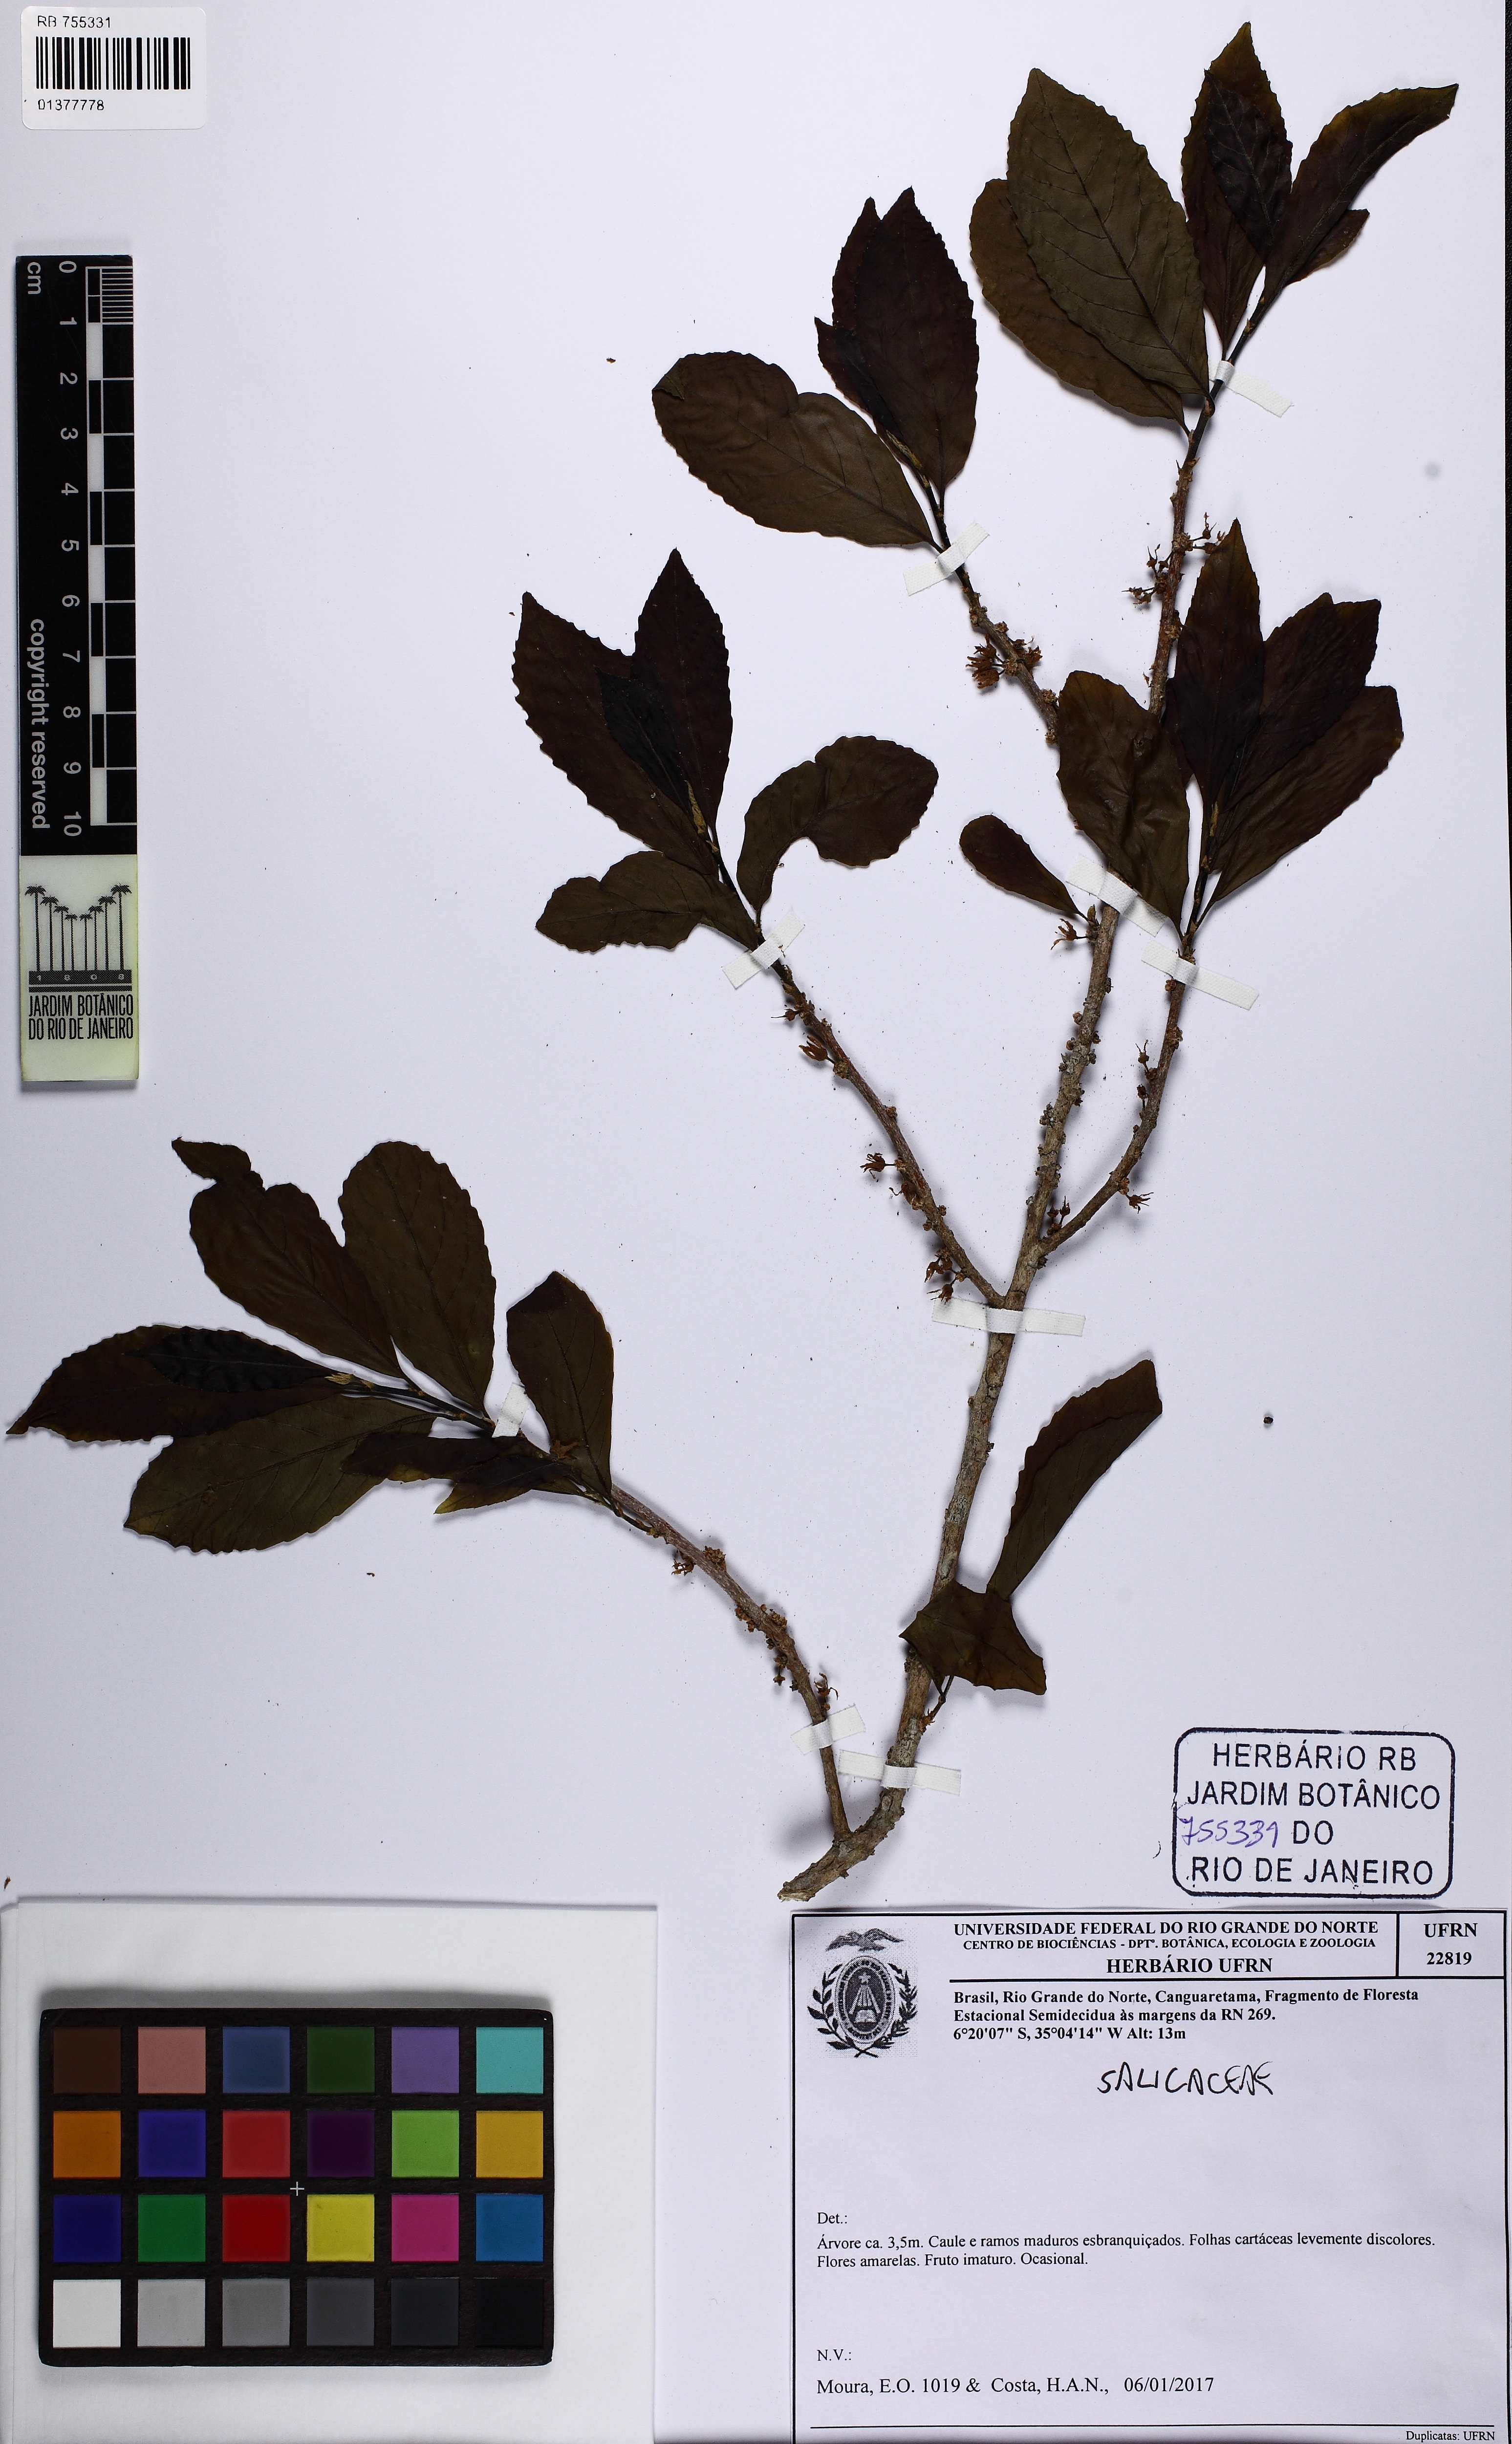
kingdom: Plantae
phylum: Tracheophyta
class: Magnoliopsida
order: Malpighiales
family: Salicaceae
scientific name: Salicaceae
